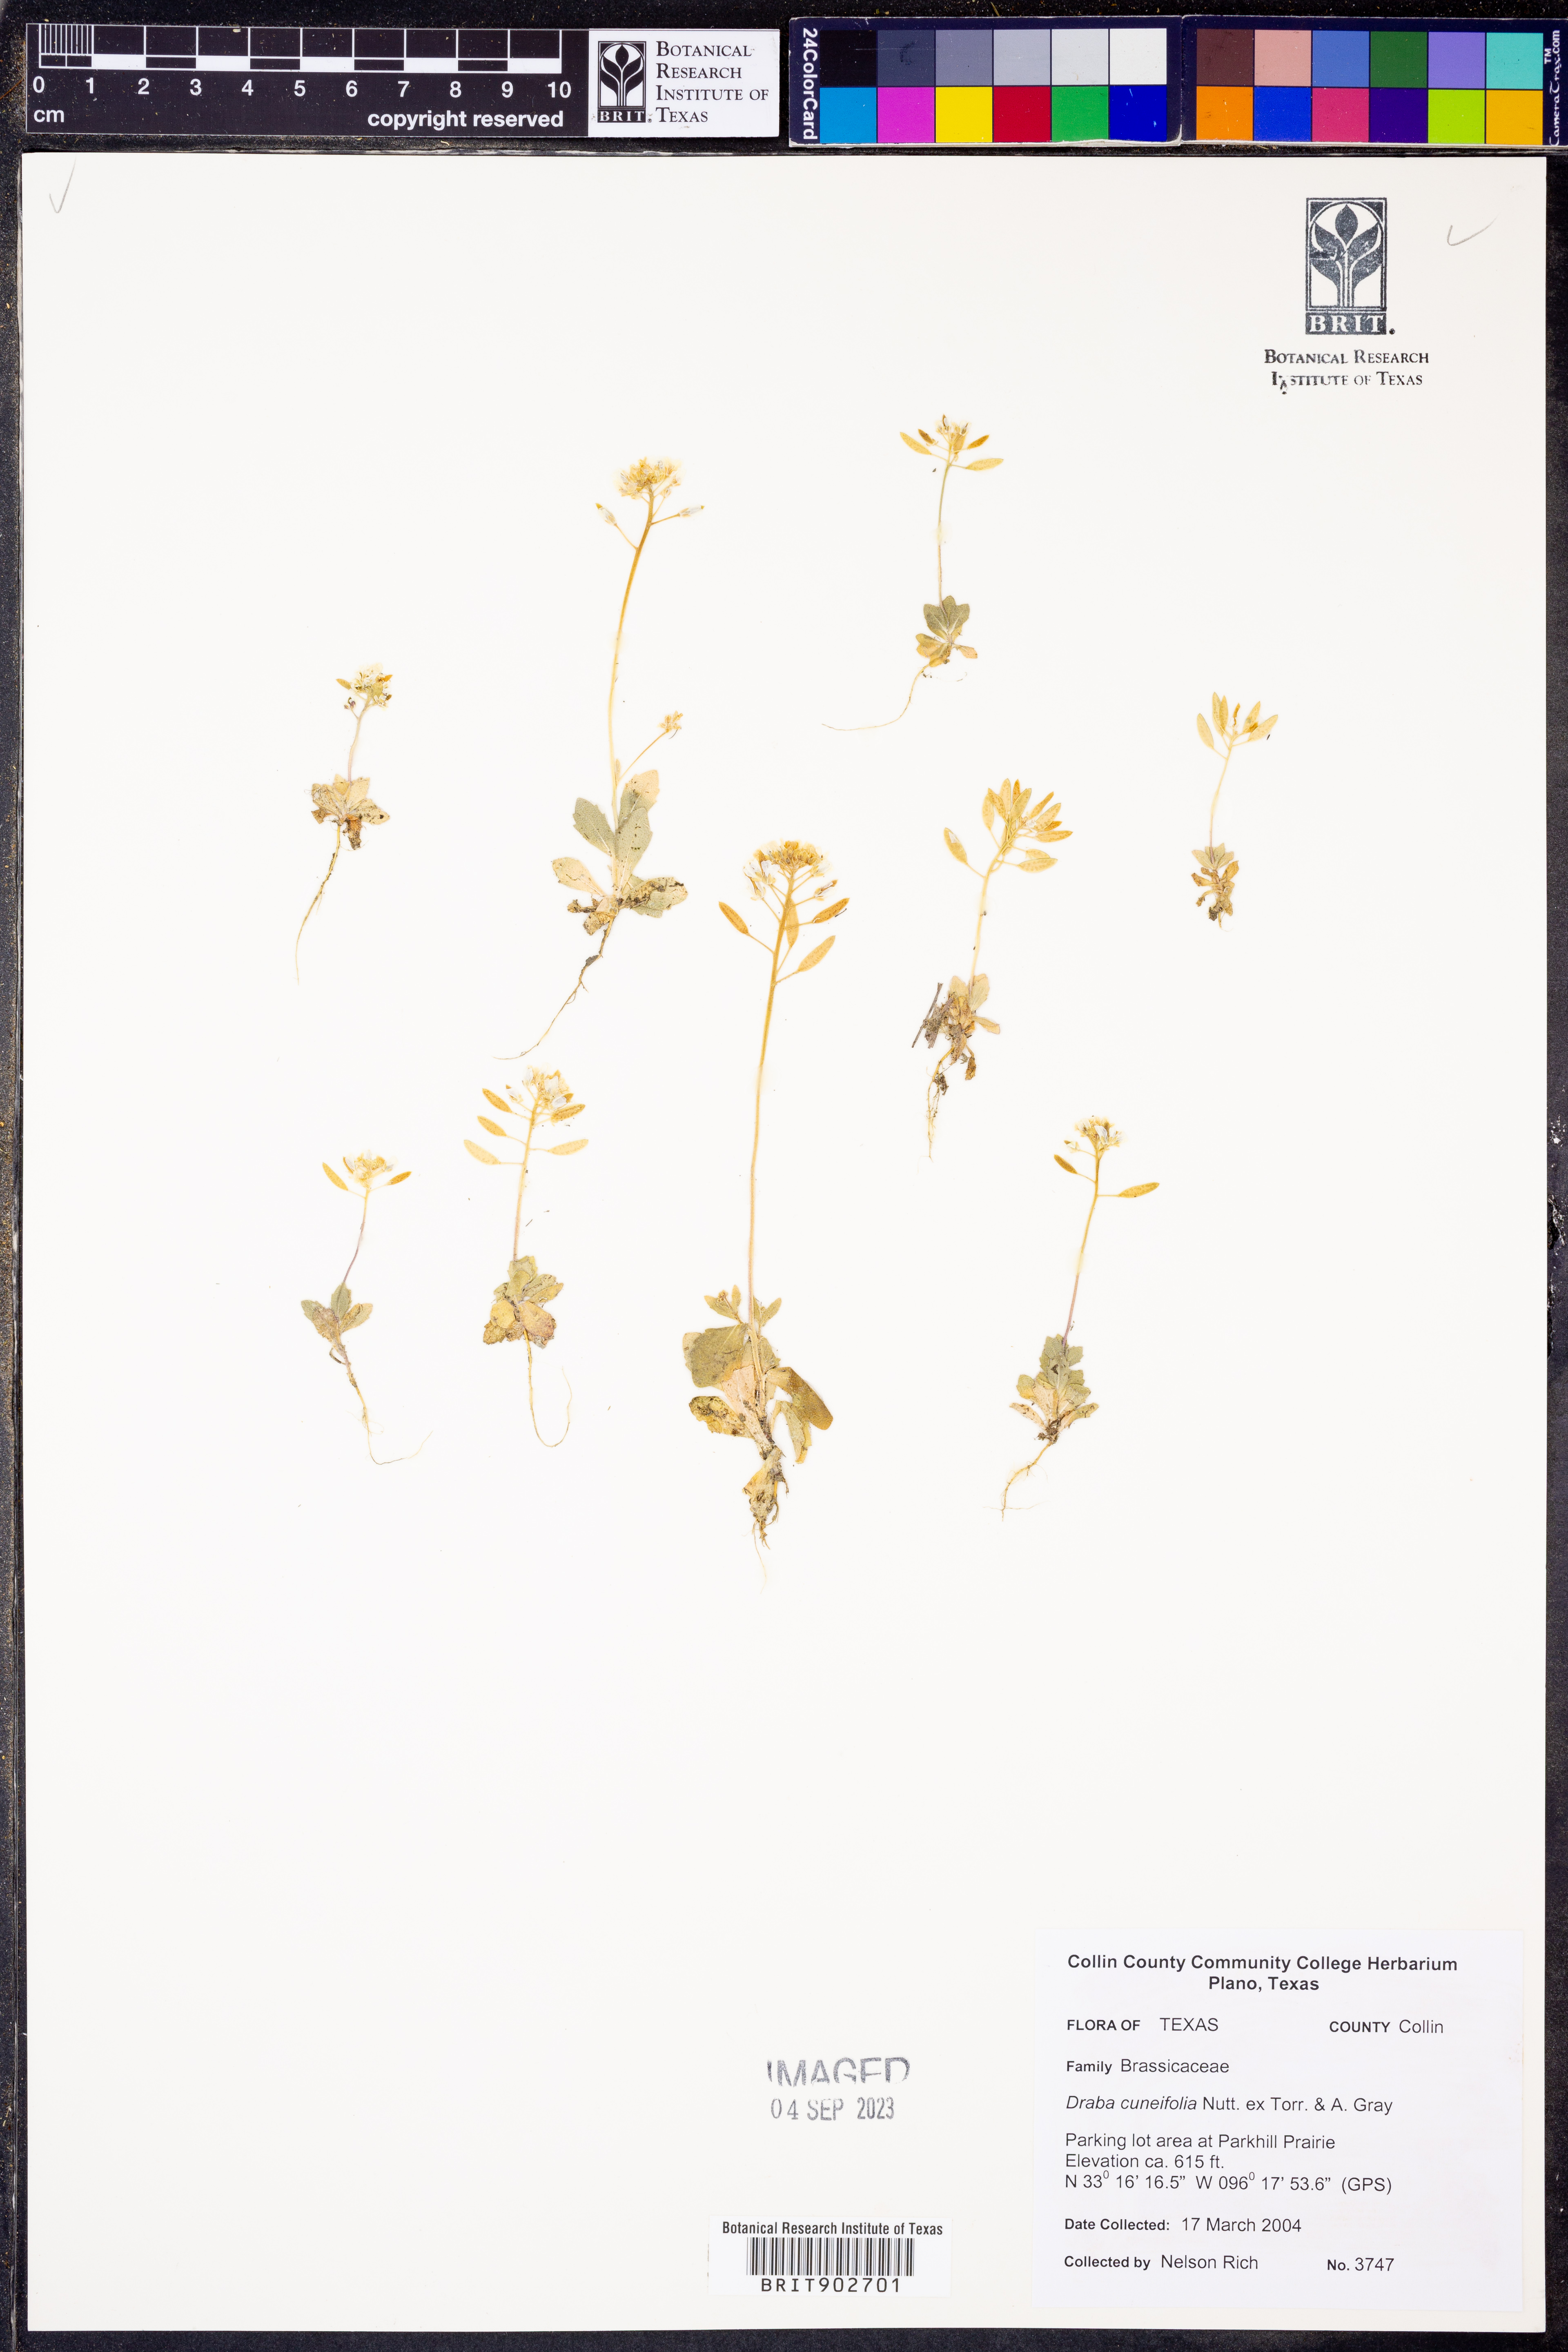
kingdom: Plantae
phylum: Tracheophyta
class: Magnoliopsida
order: Brassicales
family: Brassicaceae
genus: Tomostima
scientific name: Tomostima cuneifolia
